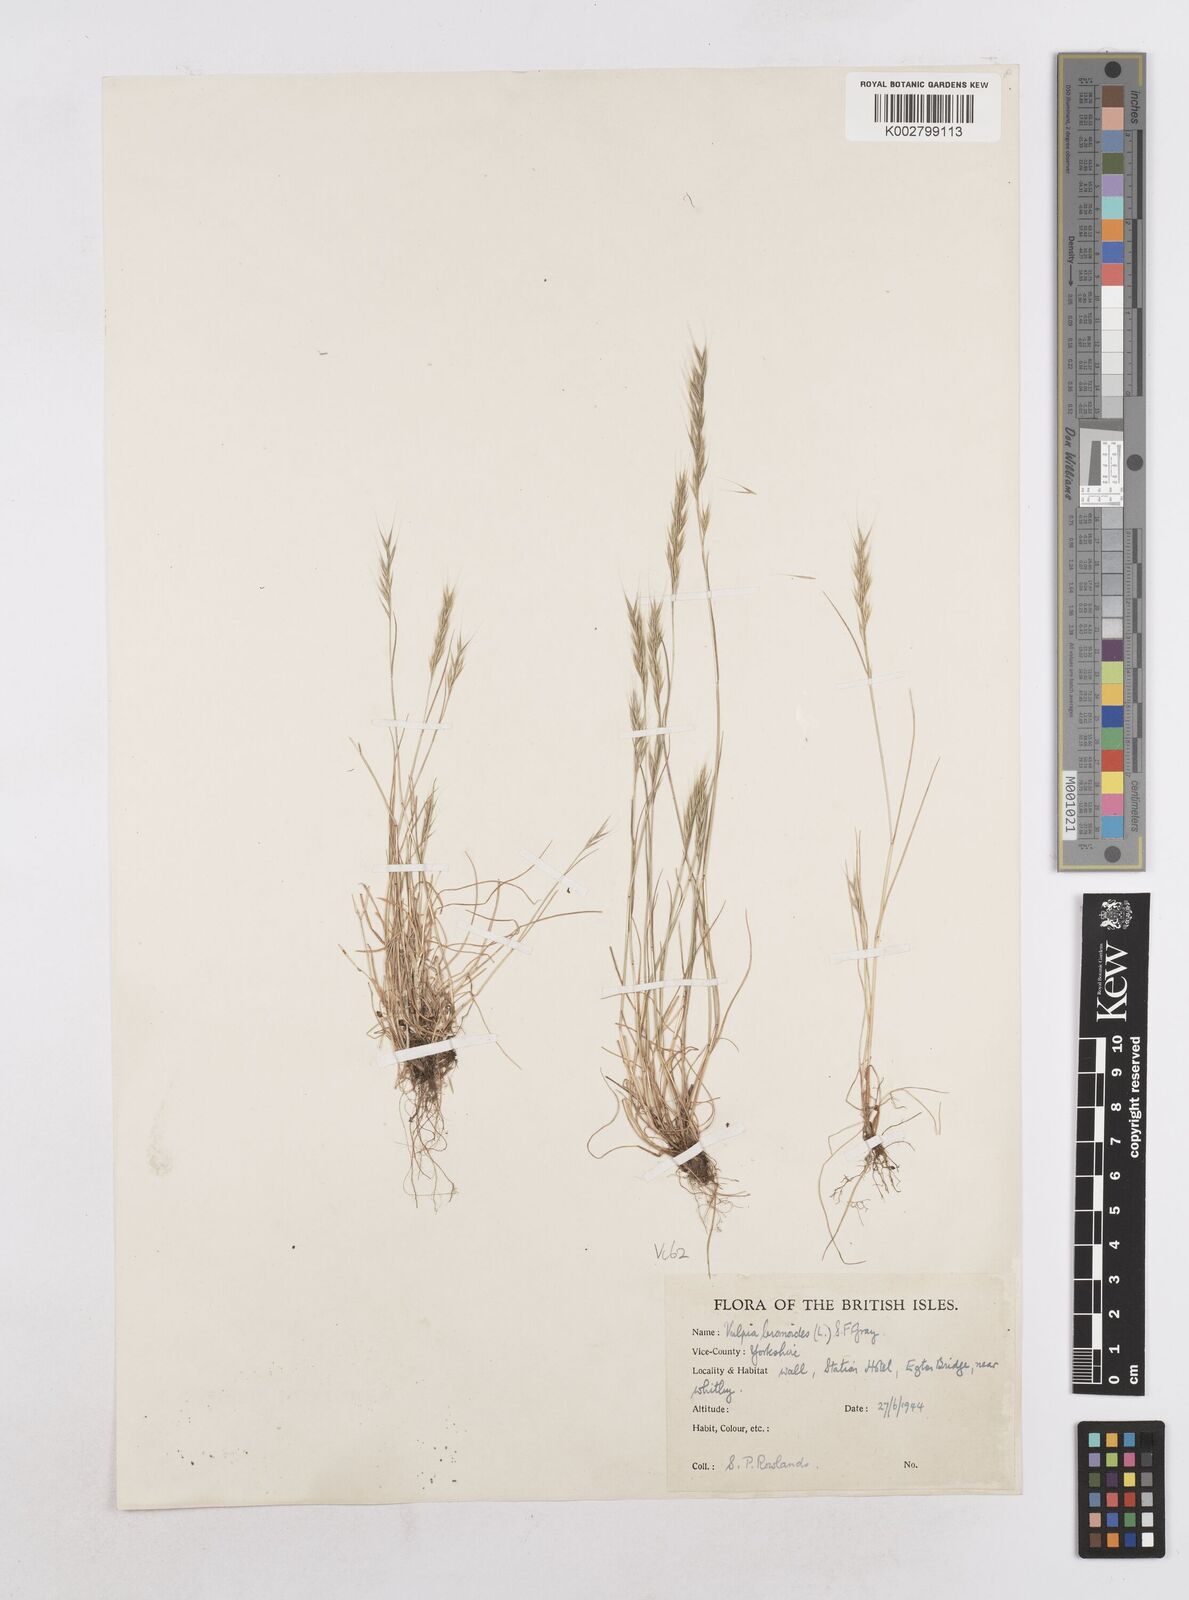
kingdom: Plantae
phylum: Tracheophyta
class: Liliopsida
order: Poales
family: Poaceae
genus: Festuca
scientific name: Festuca bromoides
